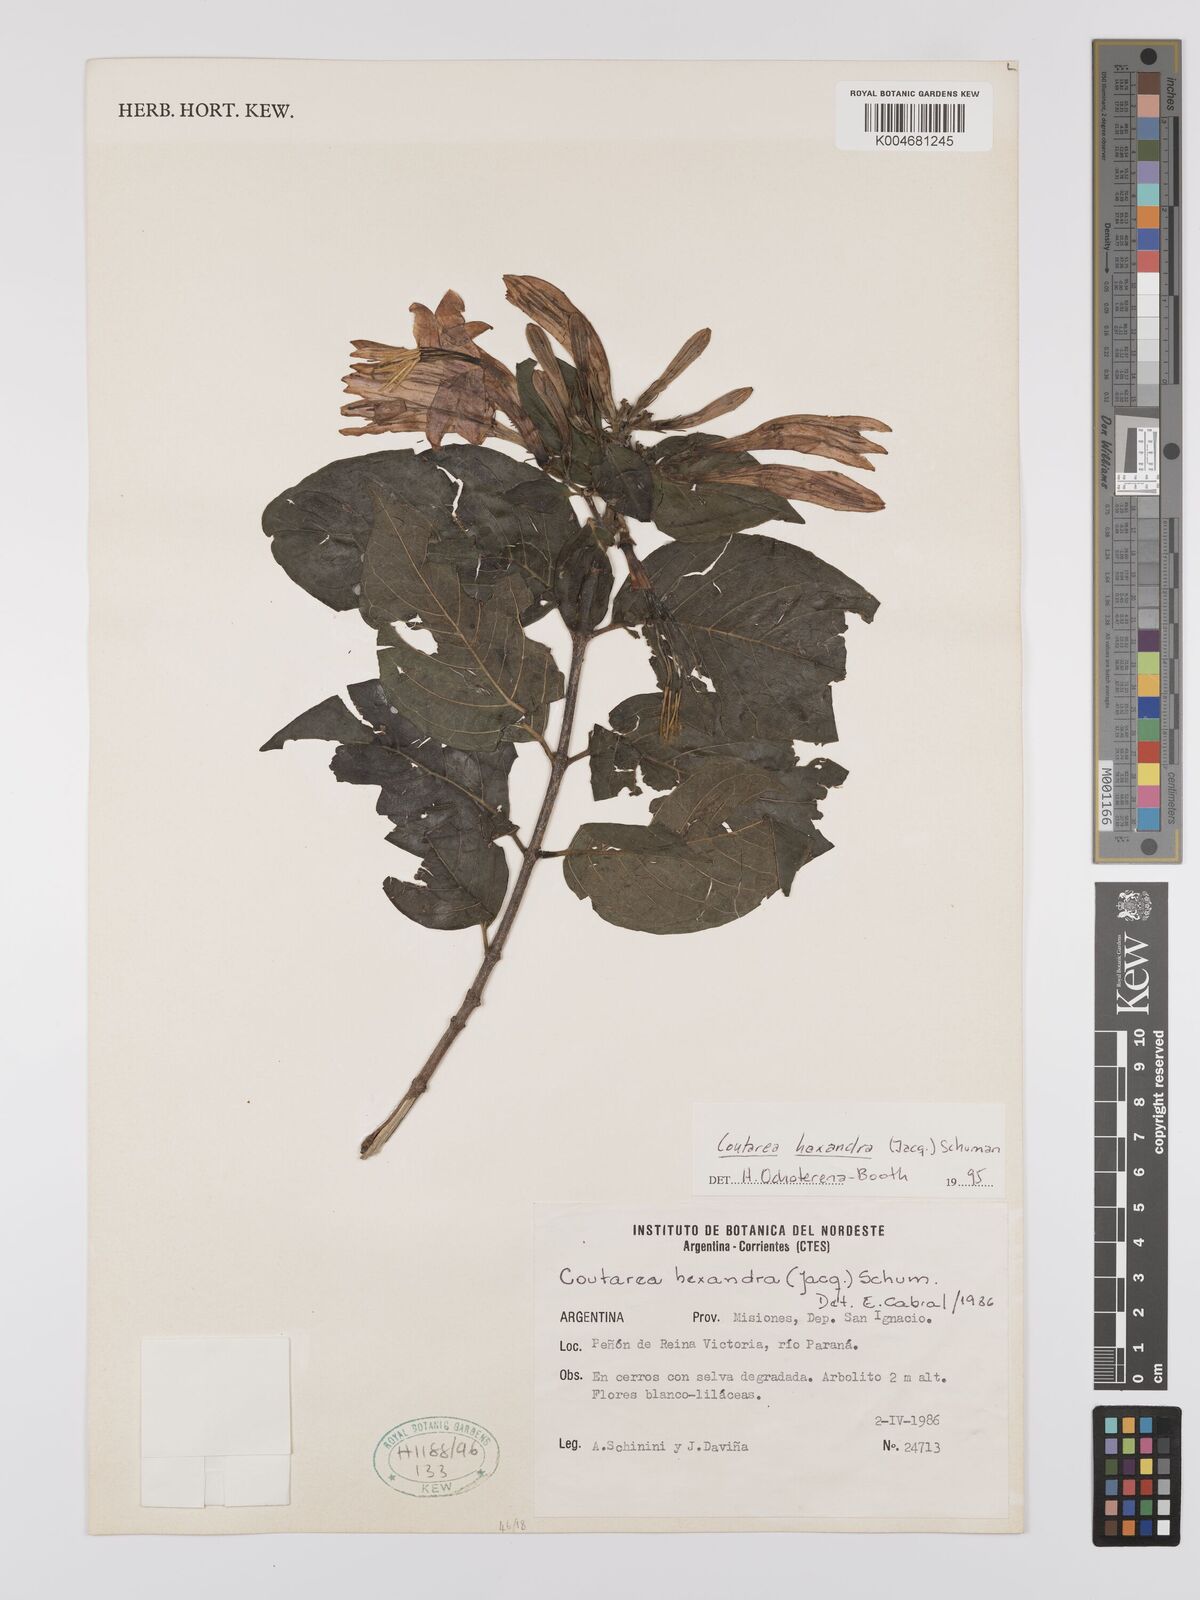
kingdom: Plantae
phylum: Tracheophyta
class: Magnoliopsida
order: Gentianales
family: Rubiaceae
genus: Coutarea
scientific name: Coutarea hexandra
